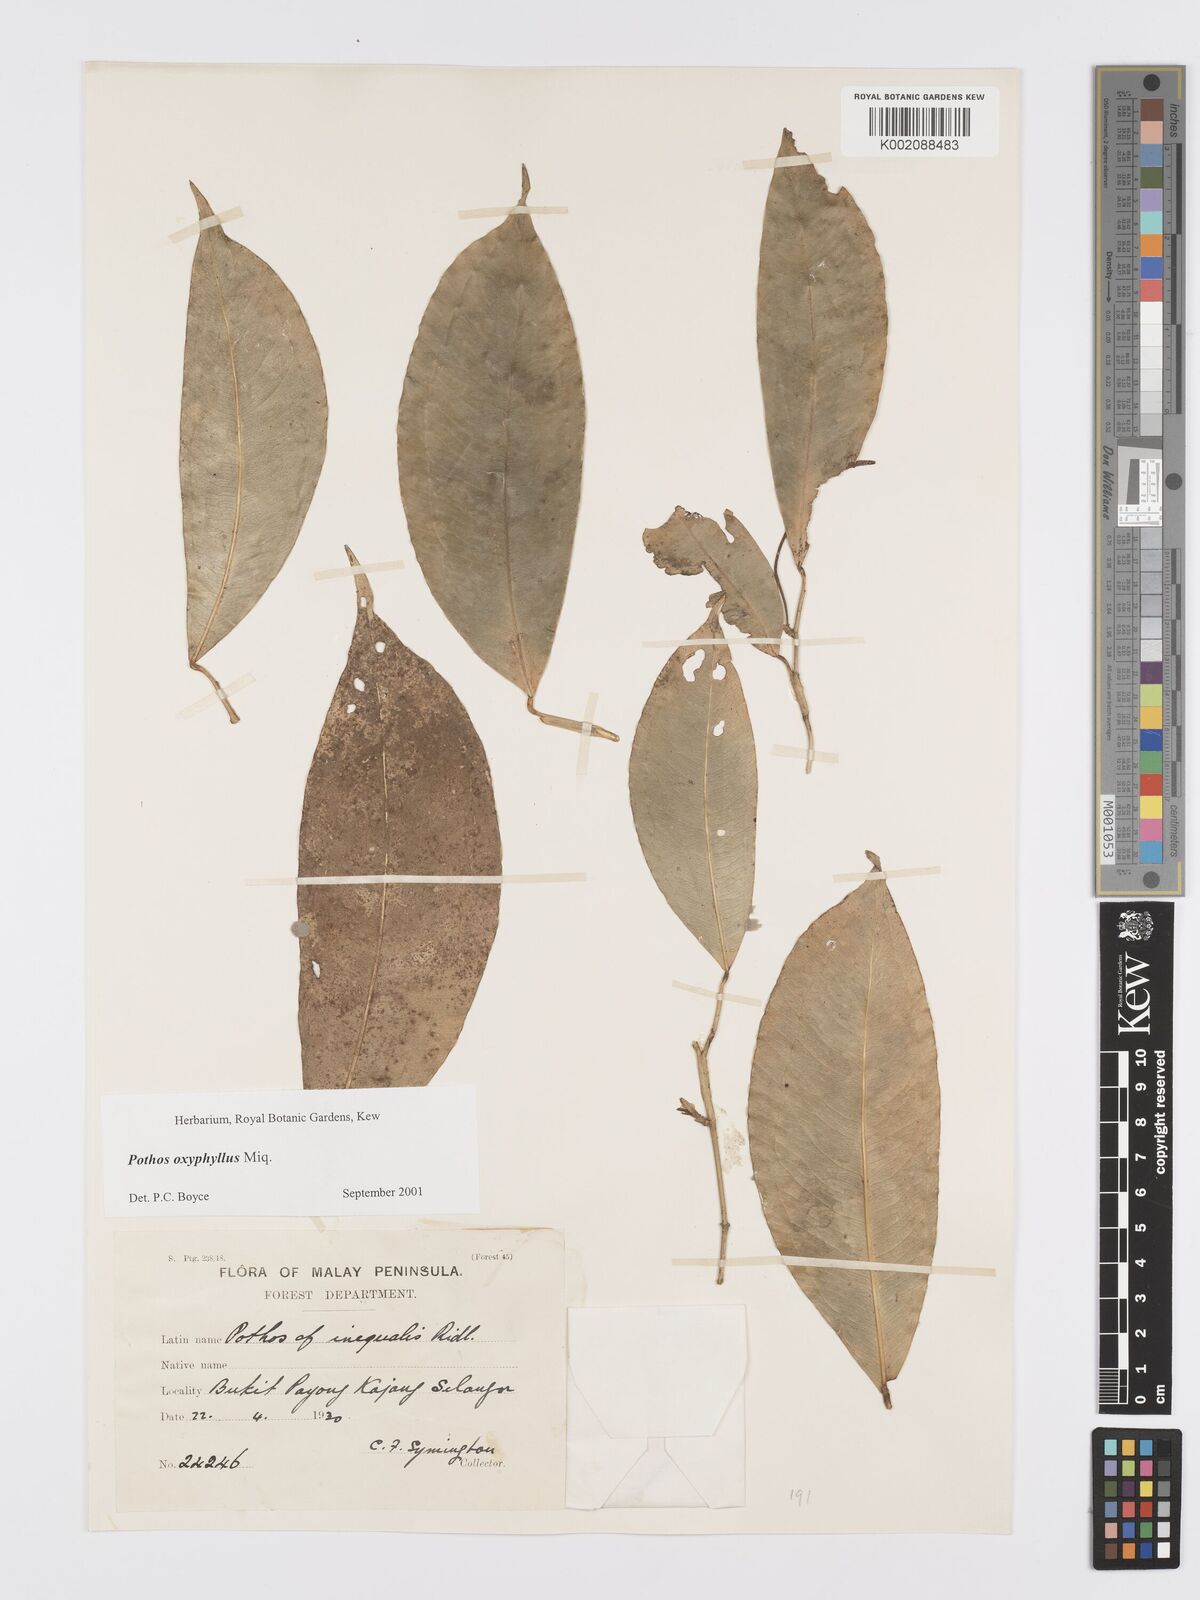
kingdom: Plantae
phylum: Tracheophyta
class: Liliopsida
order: Alismatales
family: Araceae
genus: Pothos
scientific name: Pothos oxyphyllus
